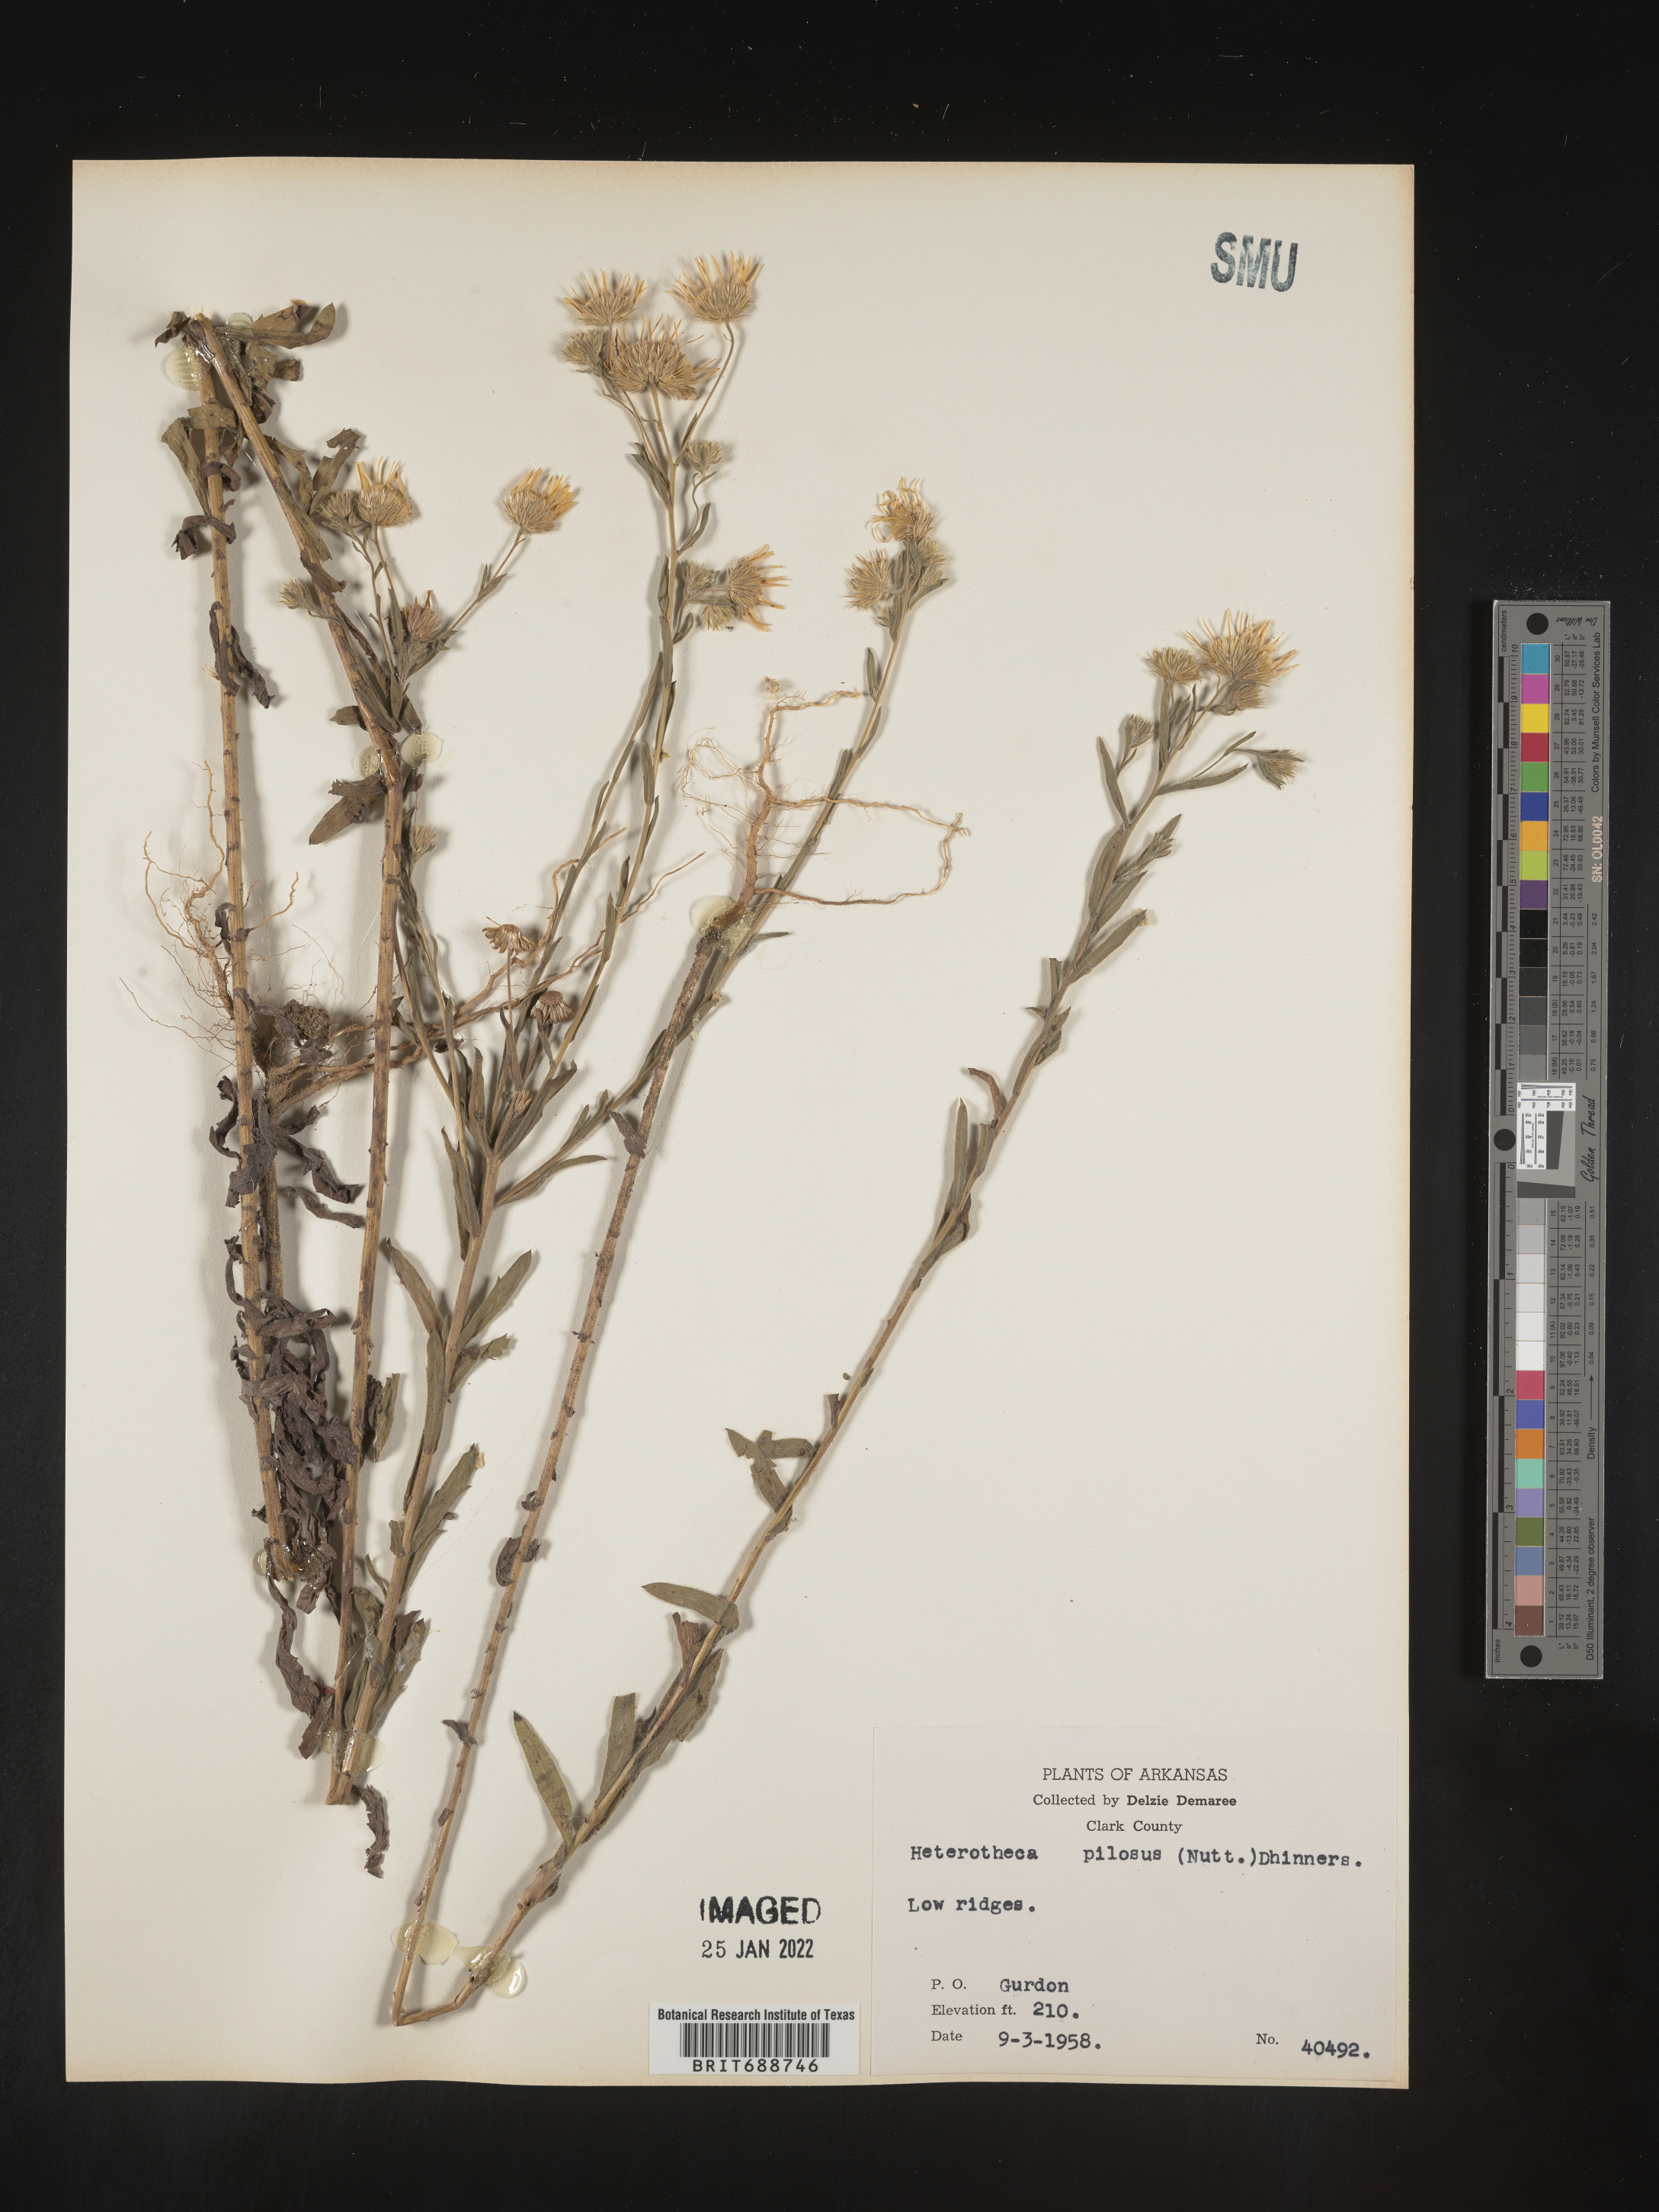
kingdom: Plantae
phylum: Tracheophyta
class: Magnoliopsida
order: Asterales
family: Asteraceae
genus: Bradburia
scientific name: Bradburia pilosa
